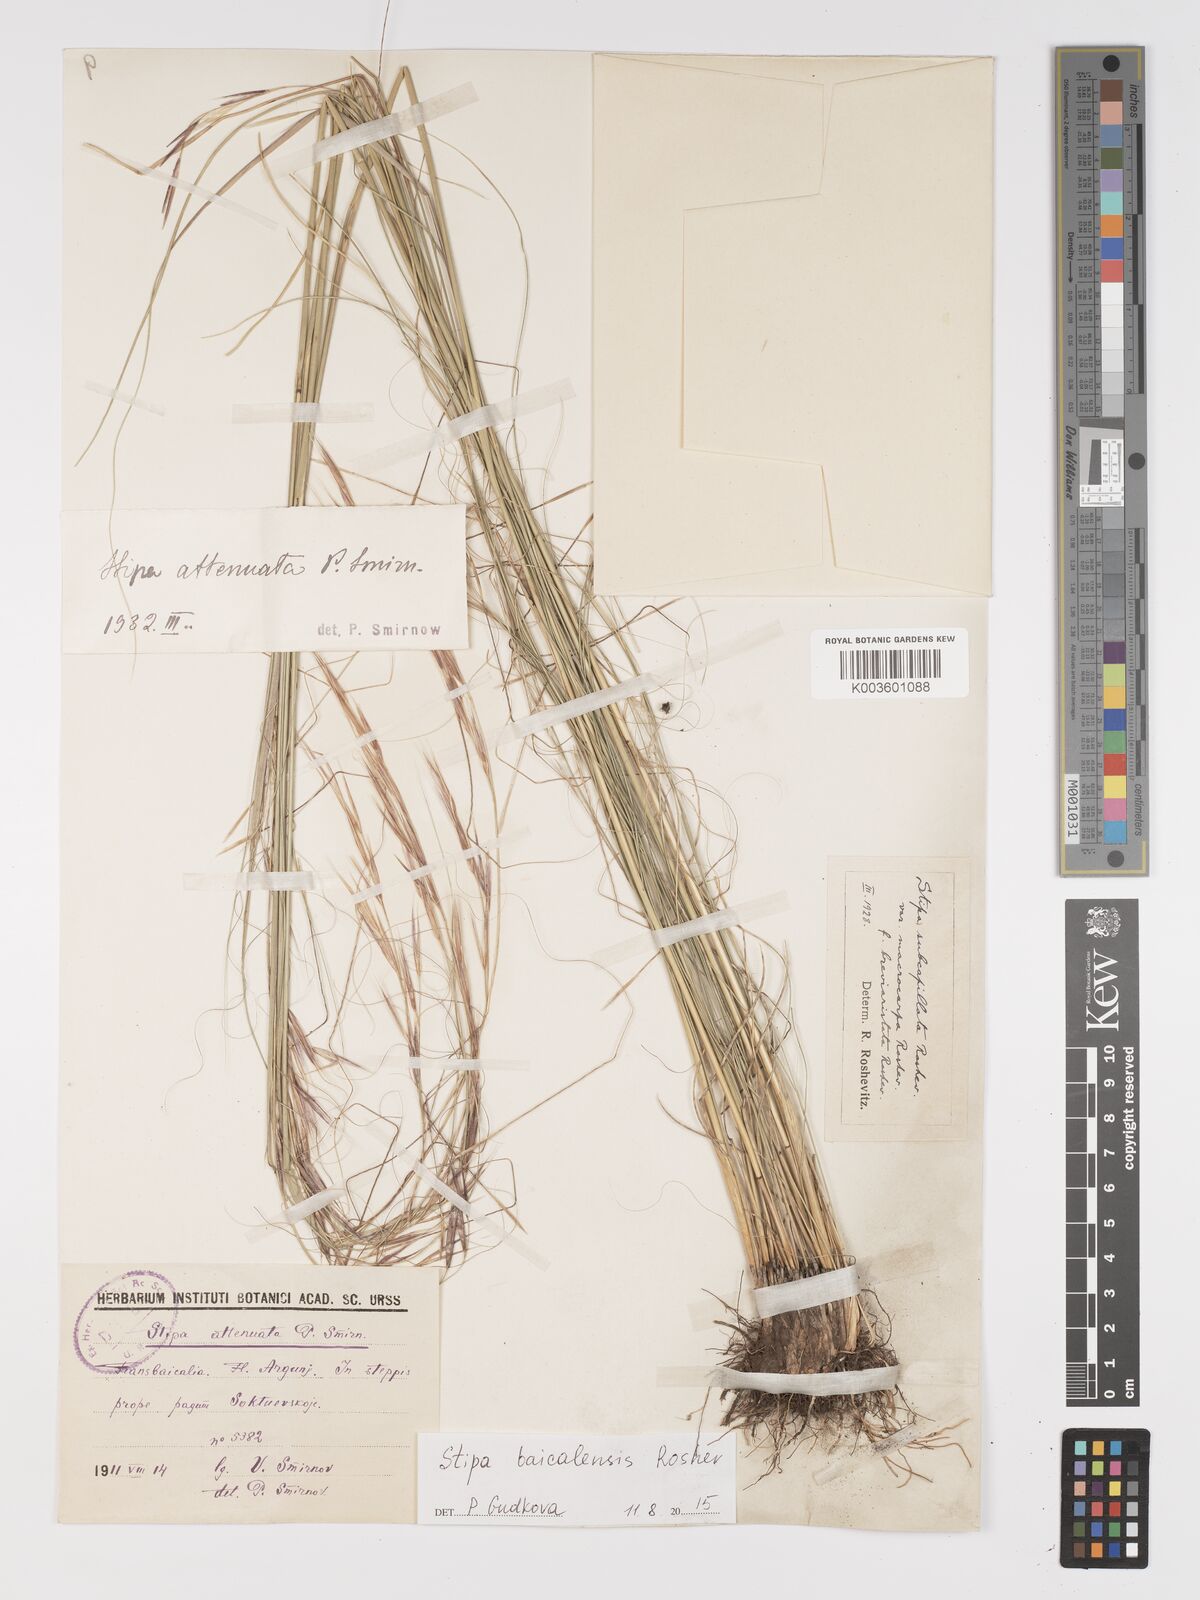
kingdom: Plantae
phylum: Tracheophyta
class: Liliopsida
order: Poales
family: Poaceae
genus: Stipa
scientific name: Stipa baicalensis
